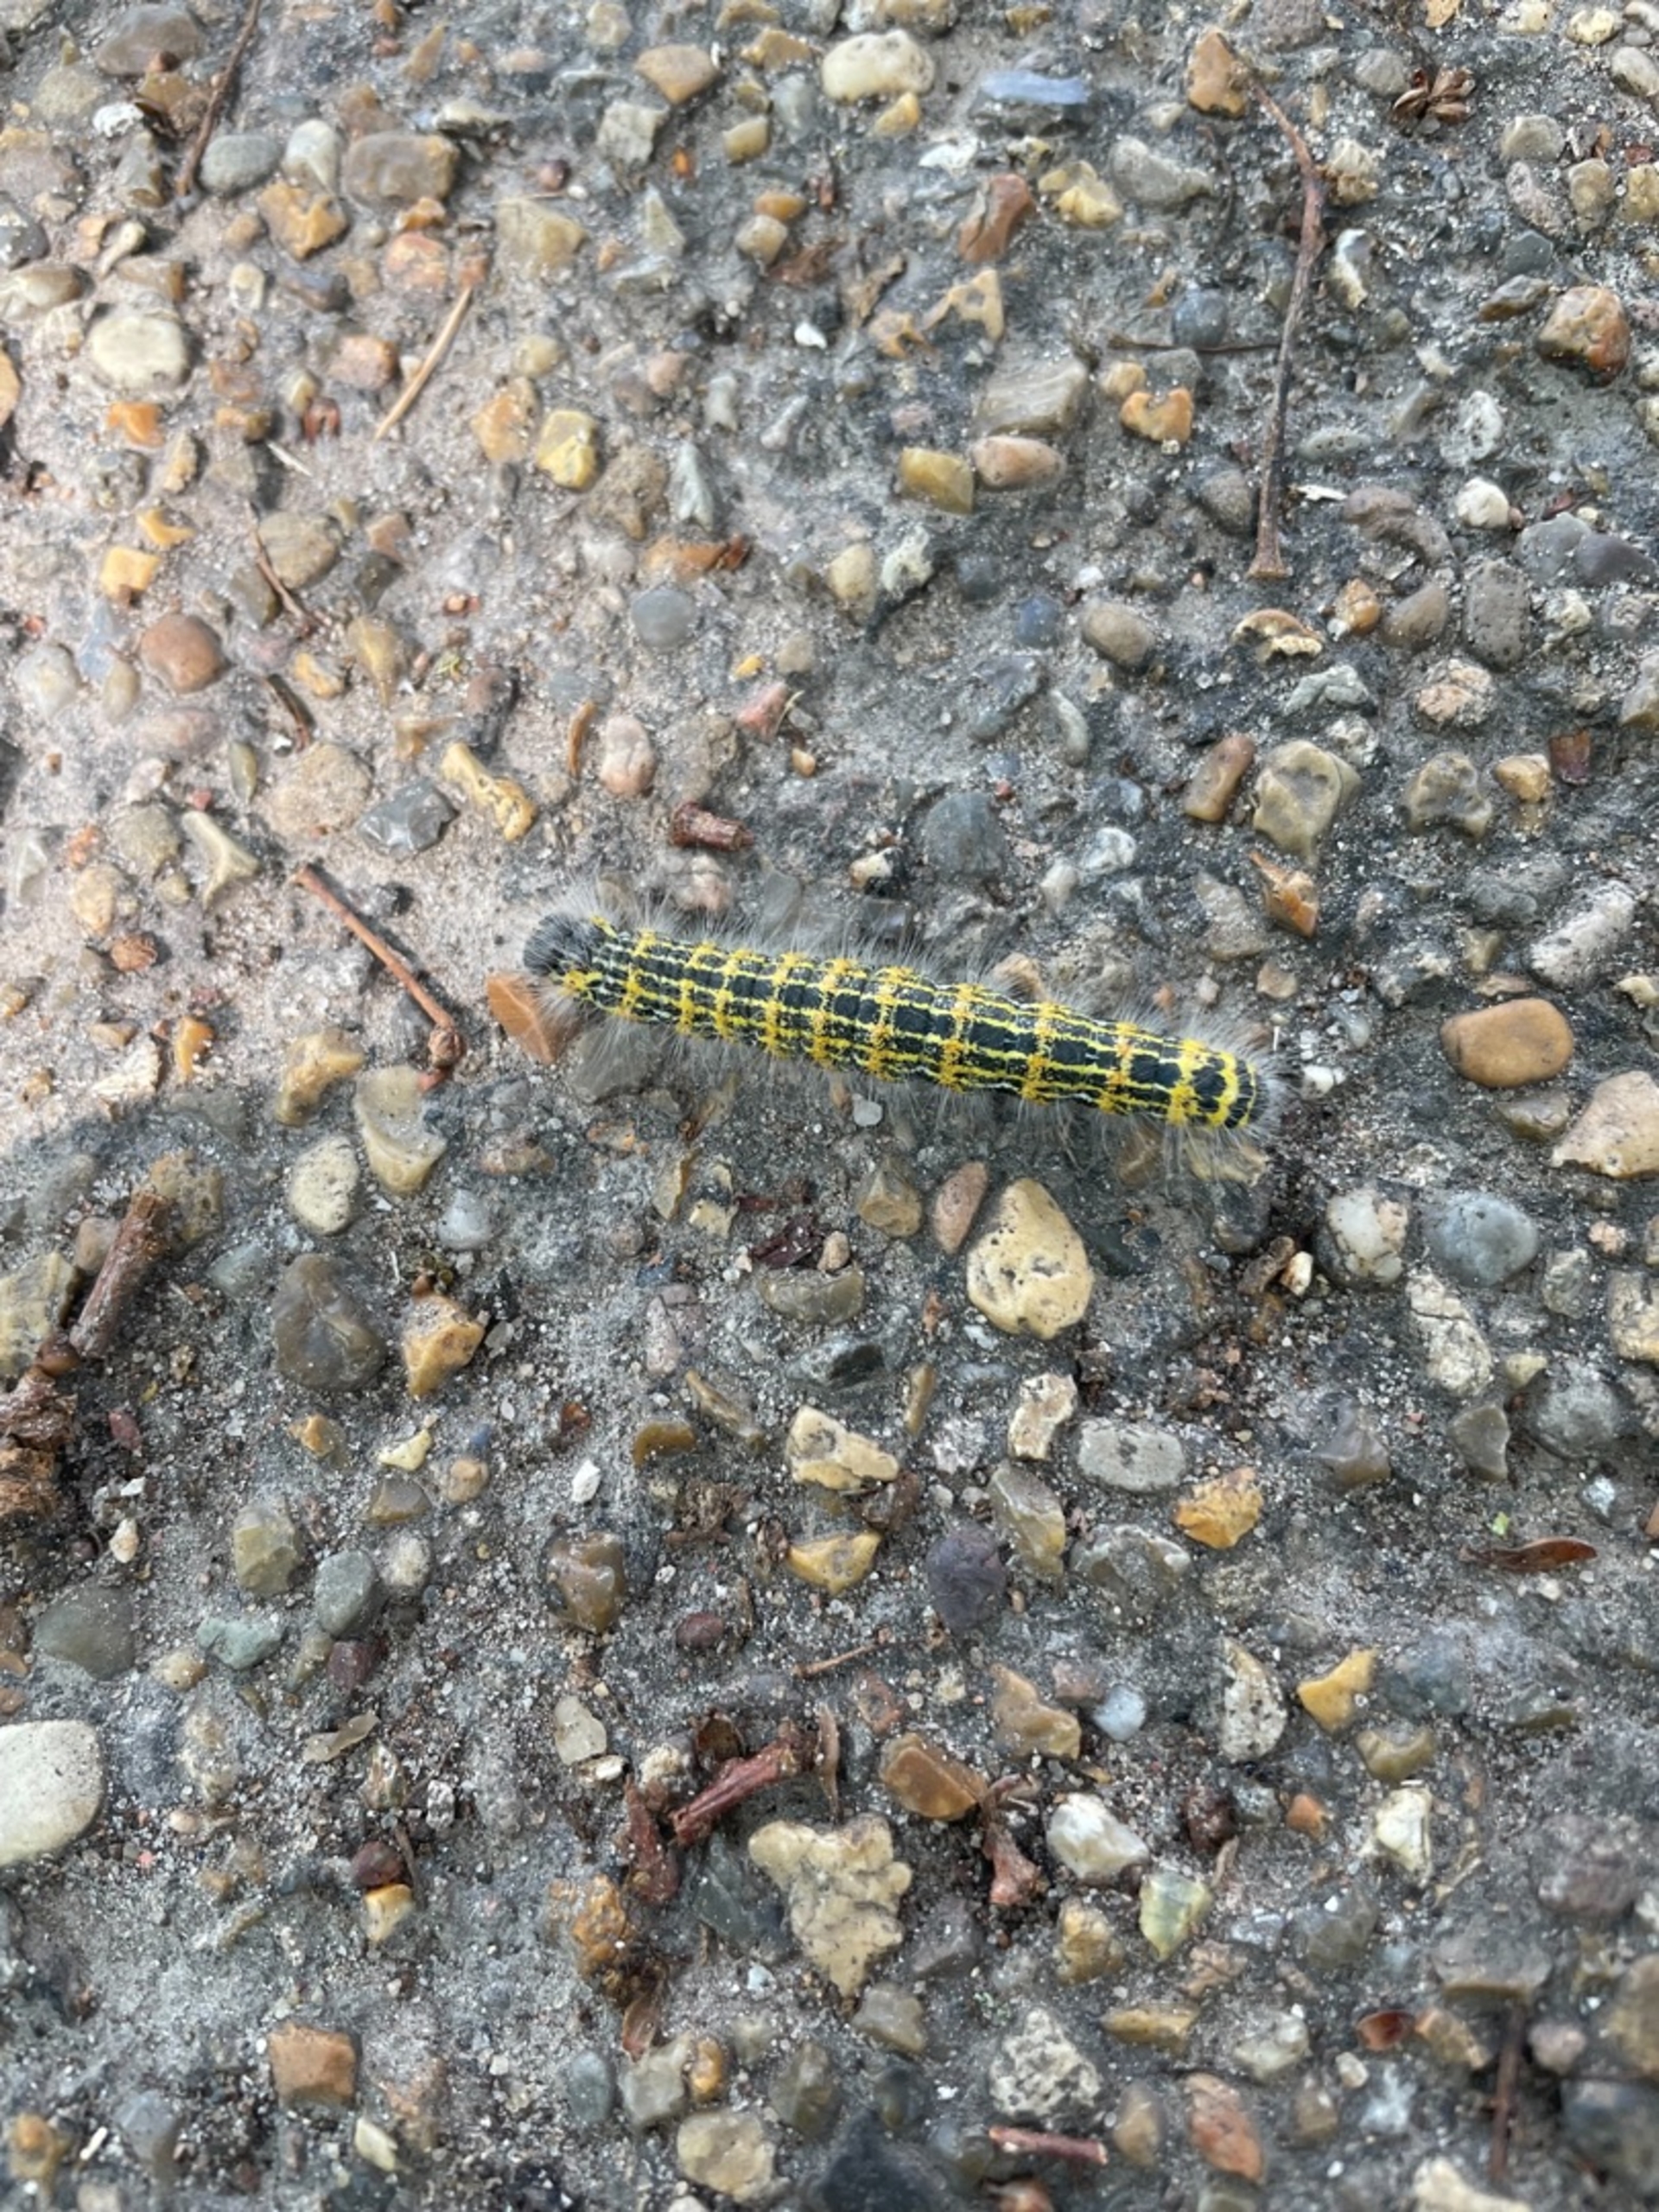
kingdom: Animalia
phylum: Arthropoda
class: Insecta
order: Lepidoptera
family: Notodontidae
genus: Phalera
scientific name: Phalera bucephala
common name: Måneplet
